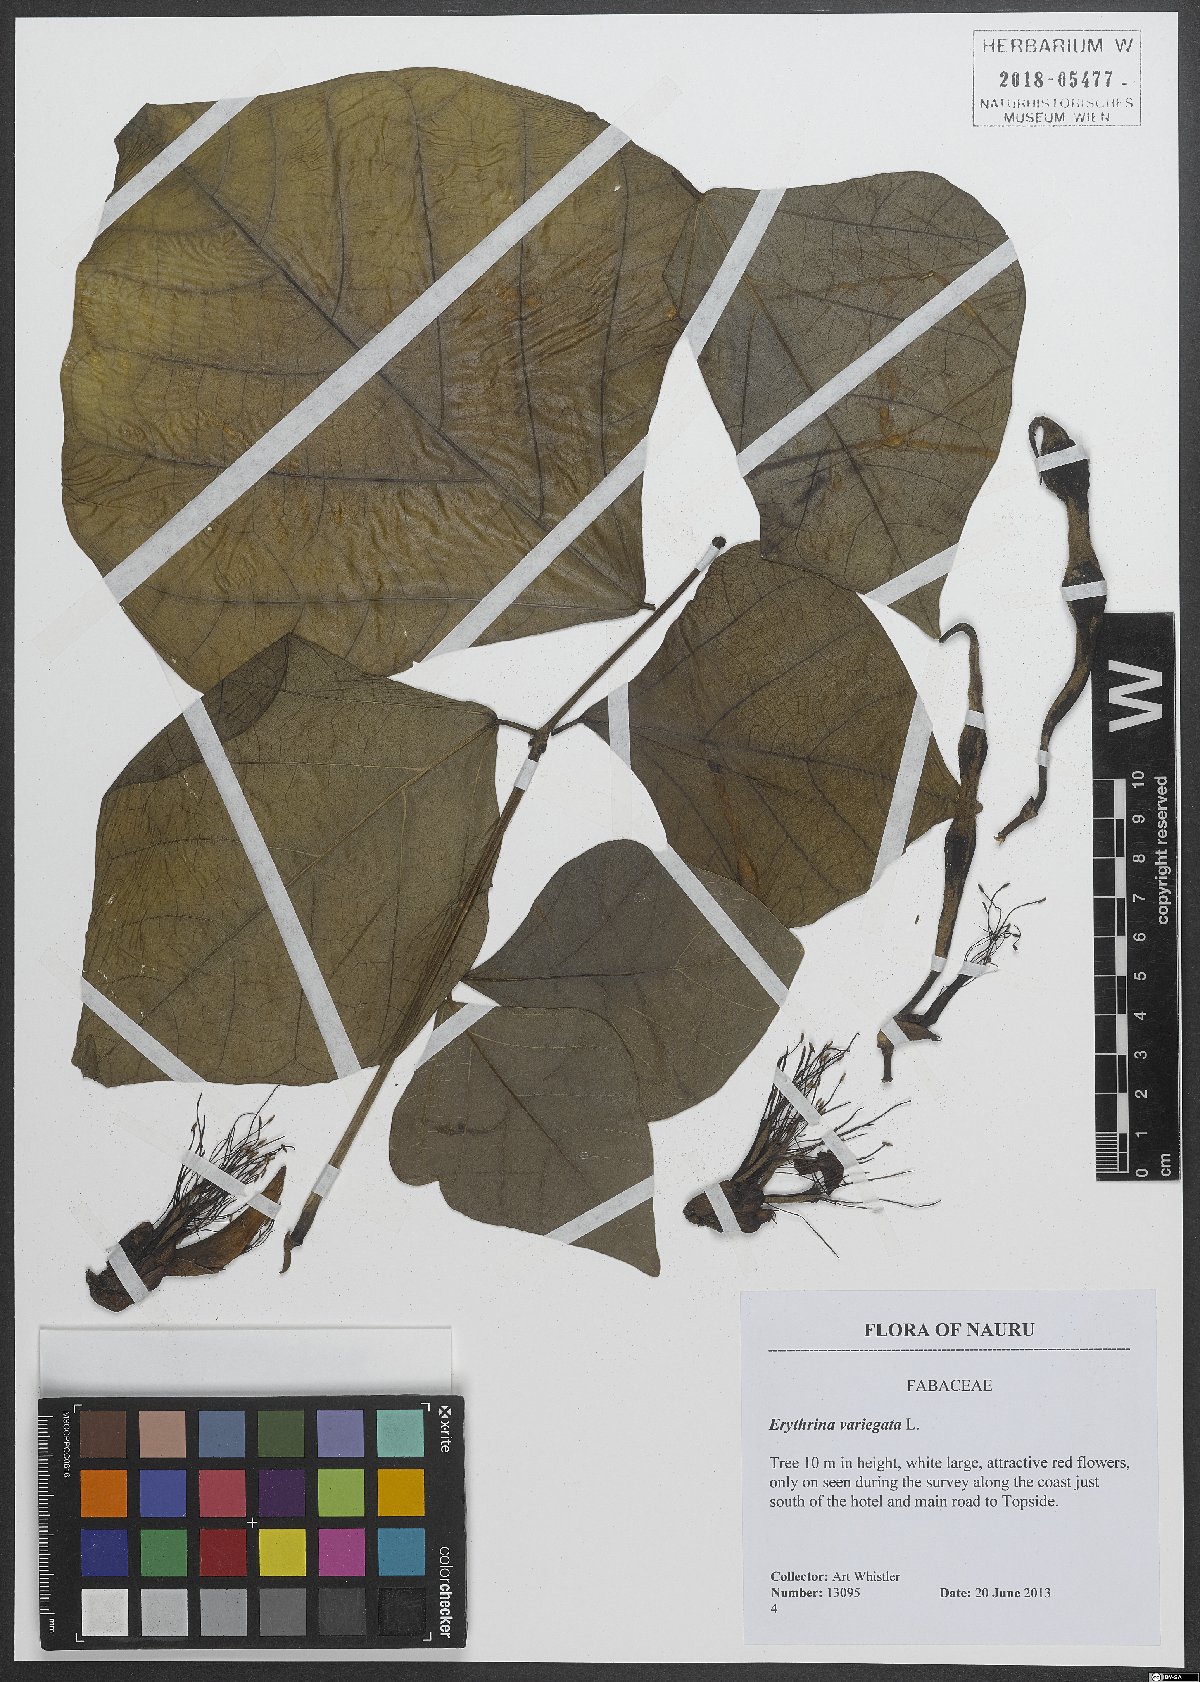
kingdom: Plantae
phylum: Tracheophyta
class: Magnoliopsida
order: Fabales
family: Fabaceae
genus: Erythrina
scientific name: Erythrina variegata
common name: Indian coral tree
